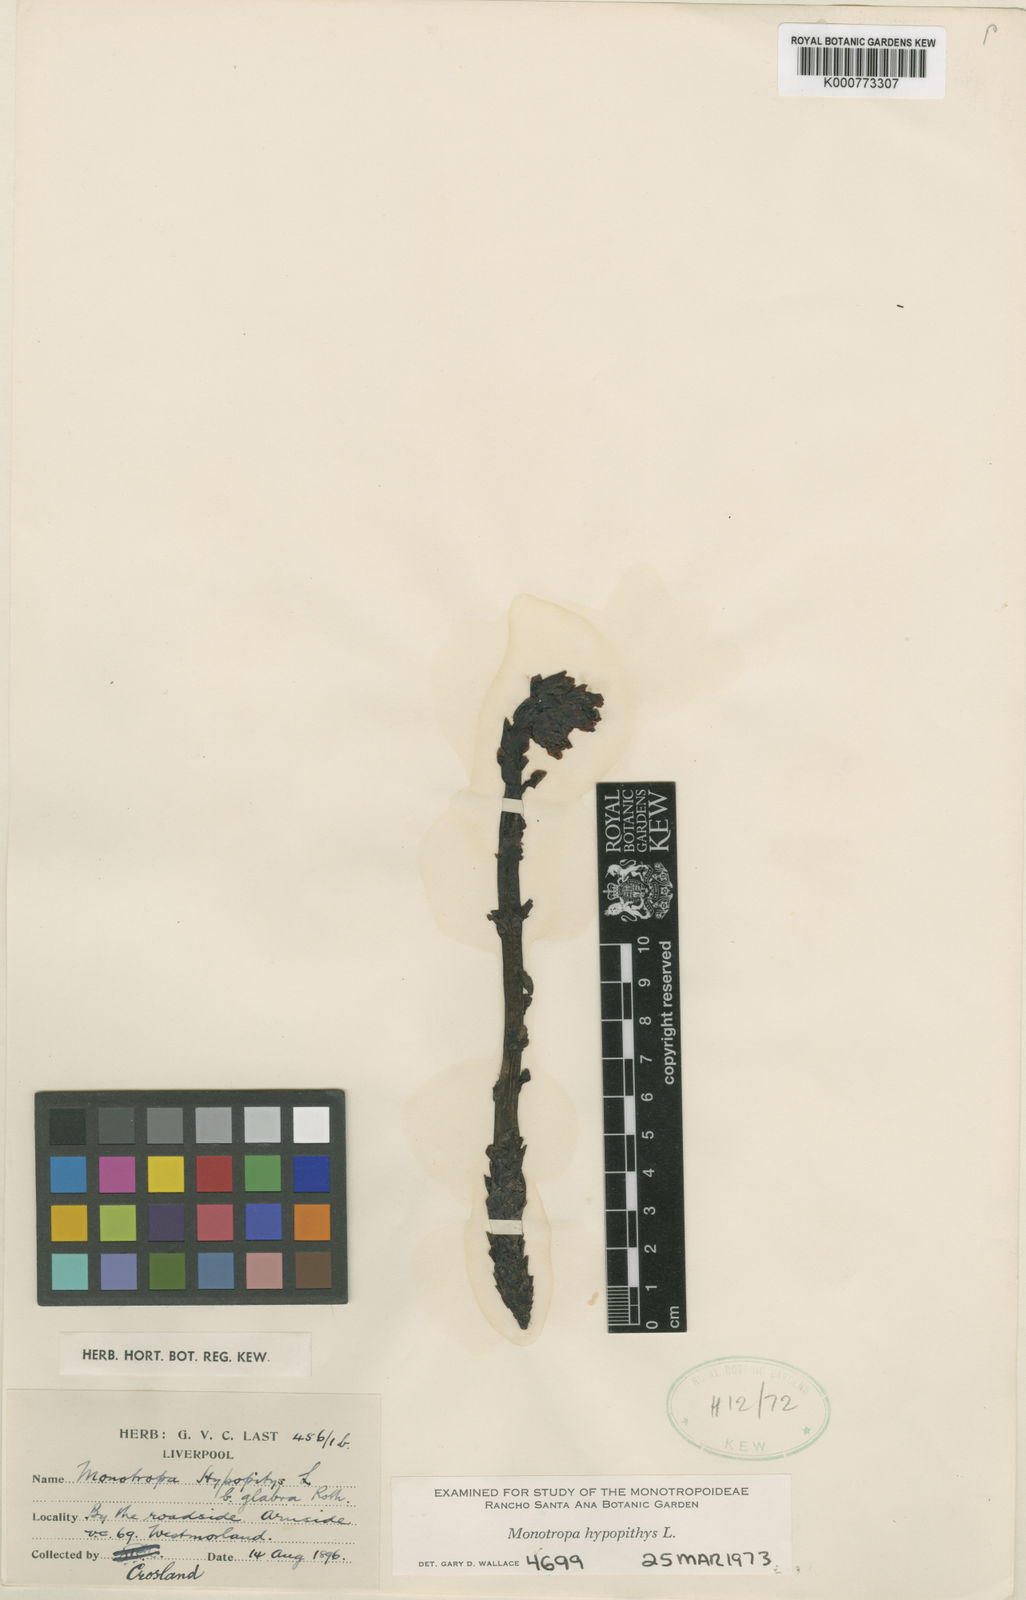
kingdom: Plantae
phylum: Tracheophyta
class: Magnoliopsida
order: Ericales
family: Ericaceae
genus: Monotropa
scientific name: Monotropa
